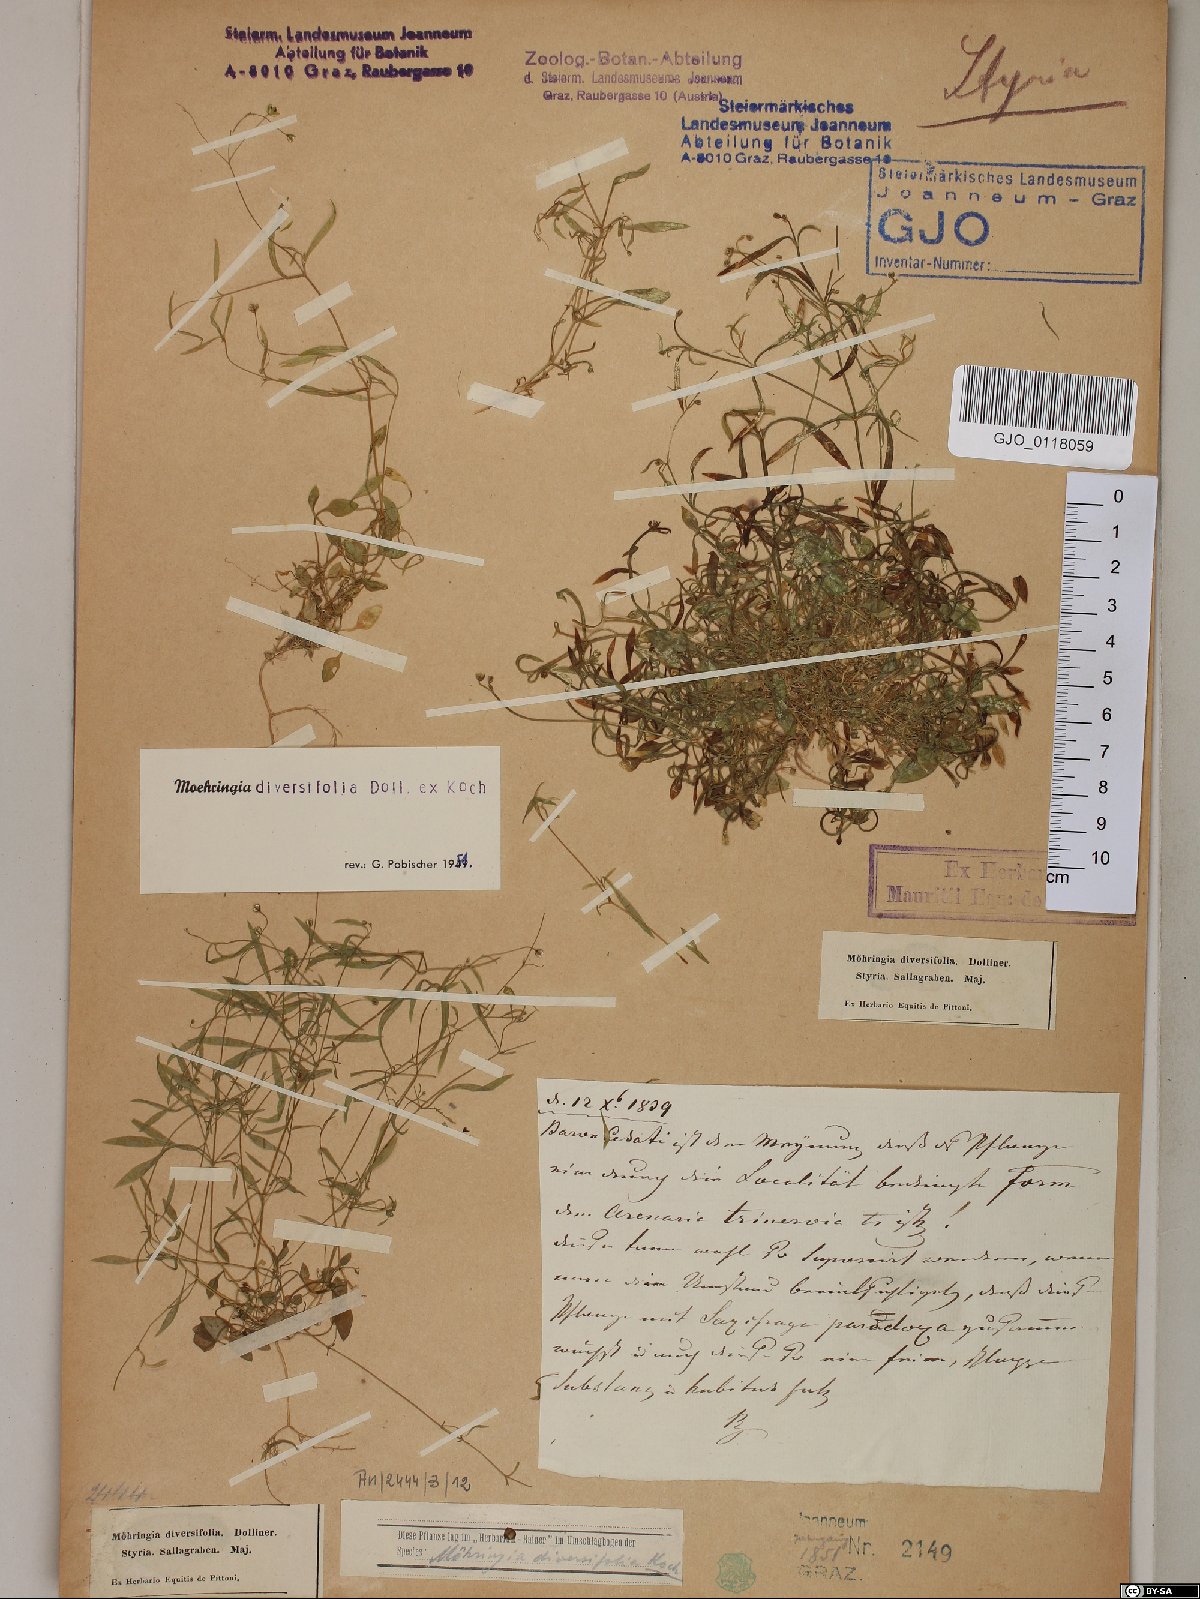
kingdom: Plantae
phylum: Tracheophyta
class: Magnoliopsida
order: Caryophyllales
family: Caryophyllaceae
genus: Moehringia
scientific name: Moehringia diversifolia
